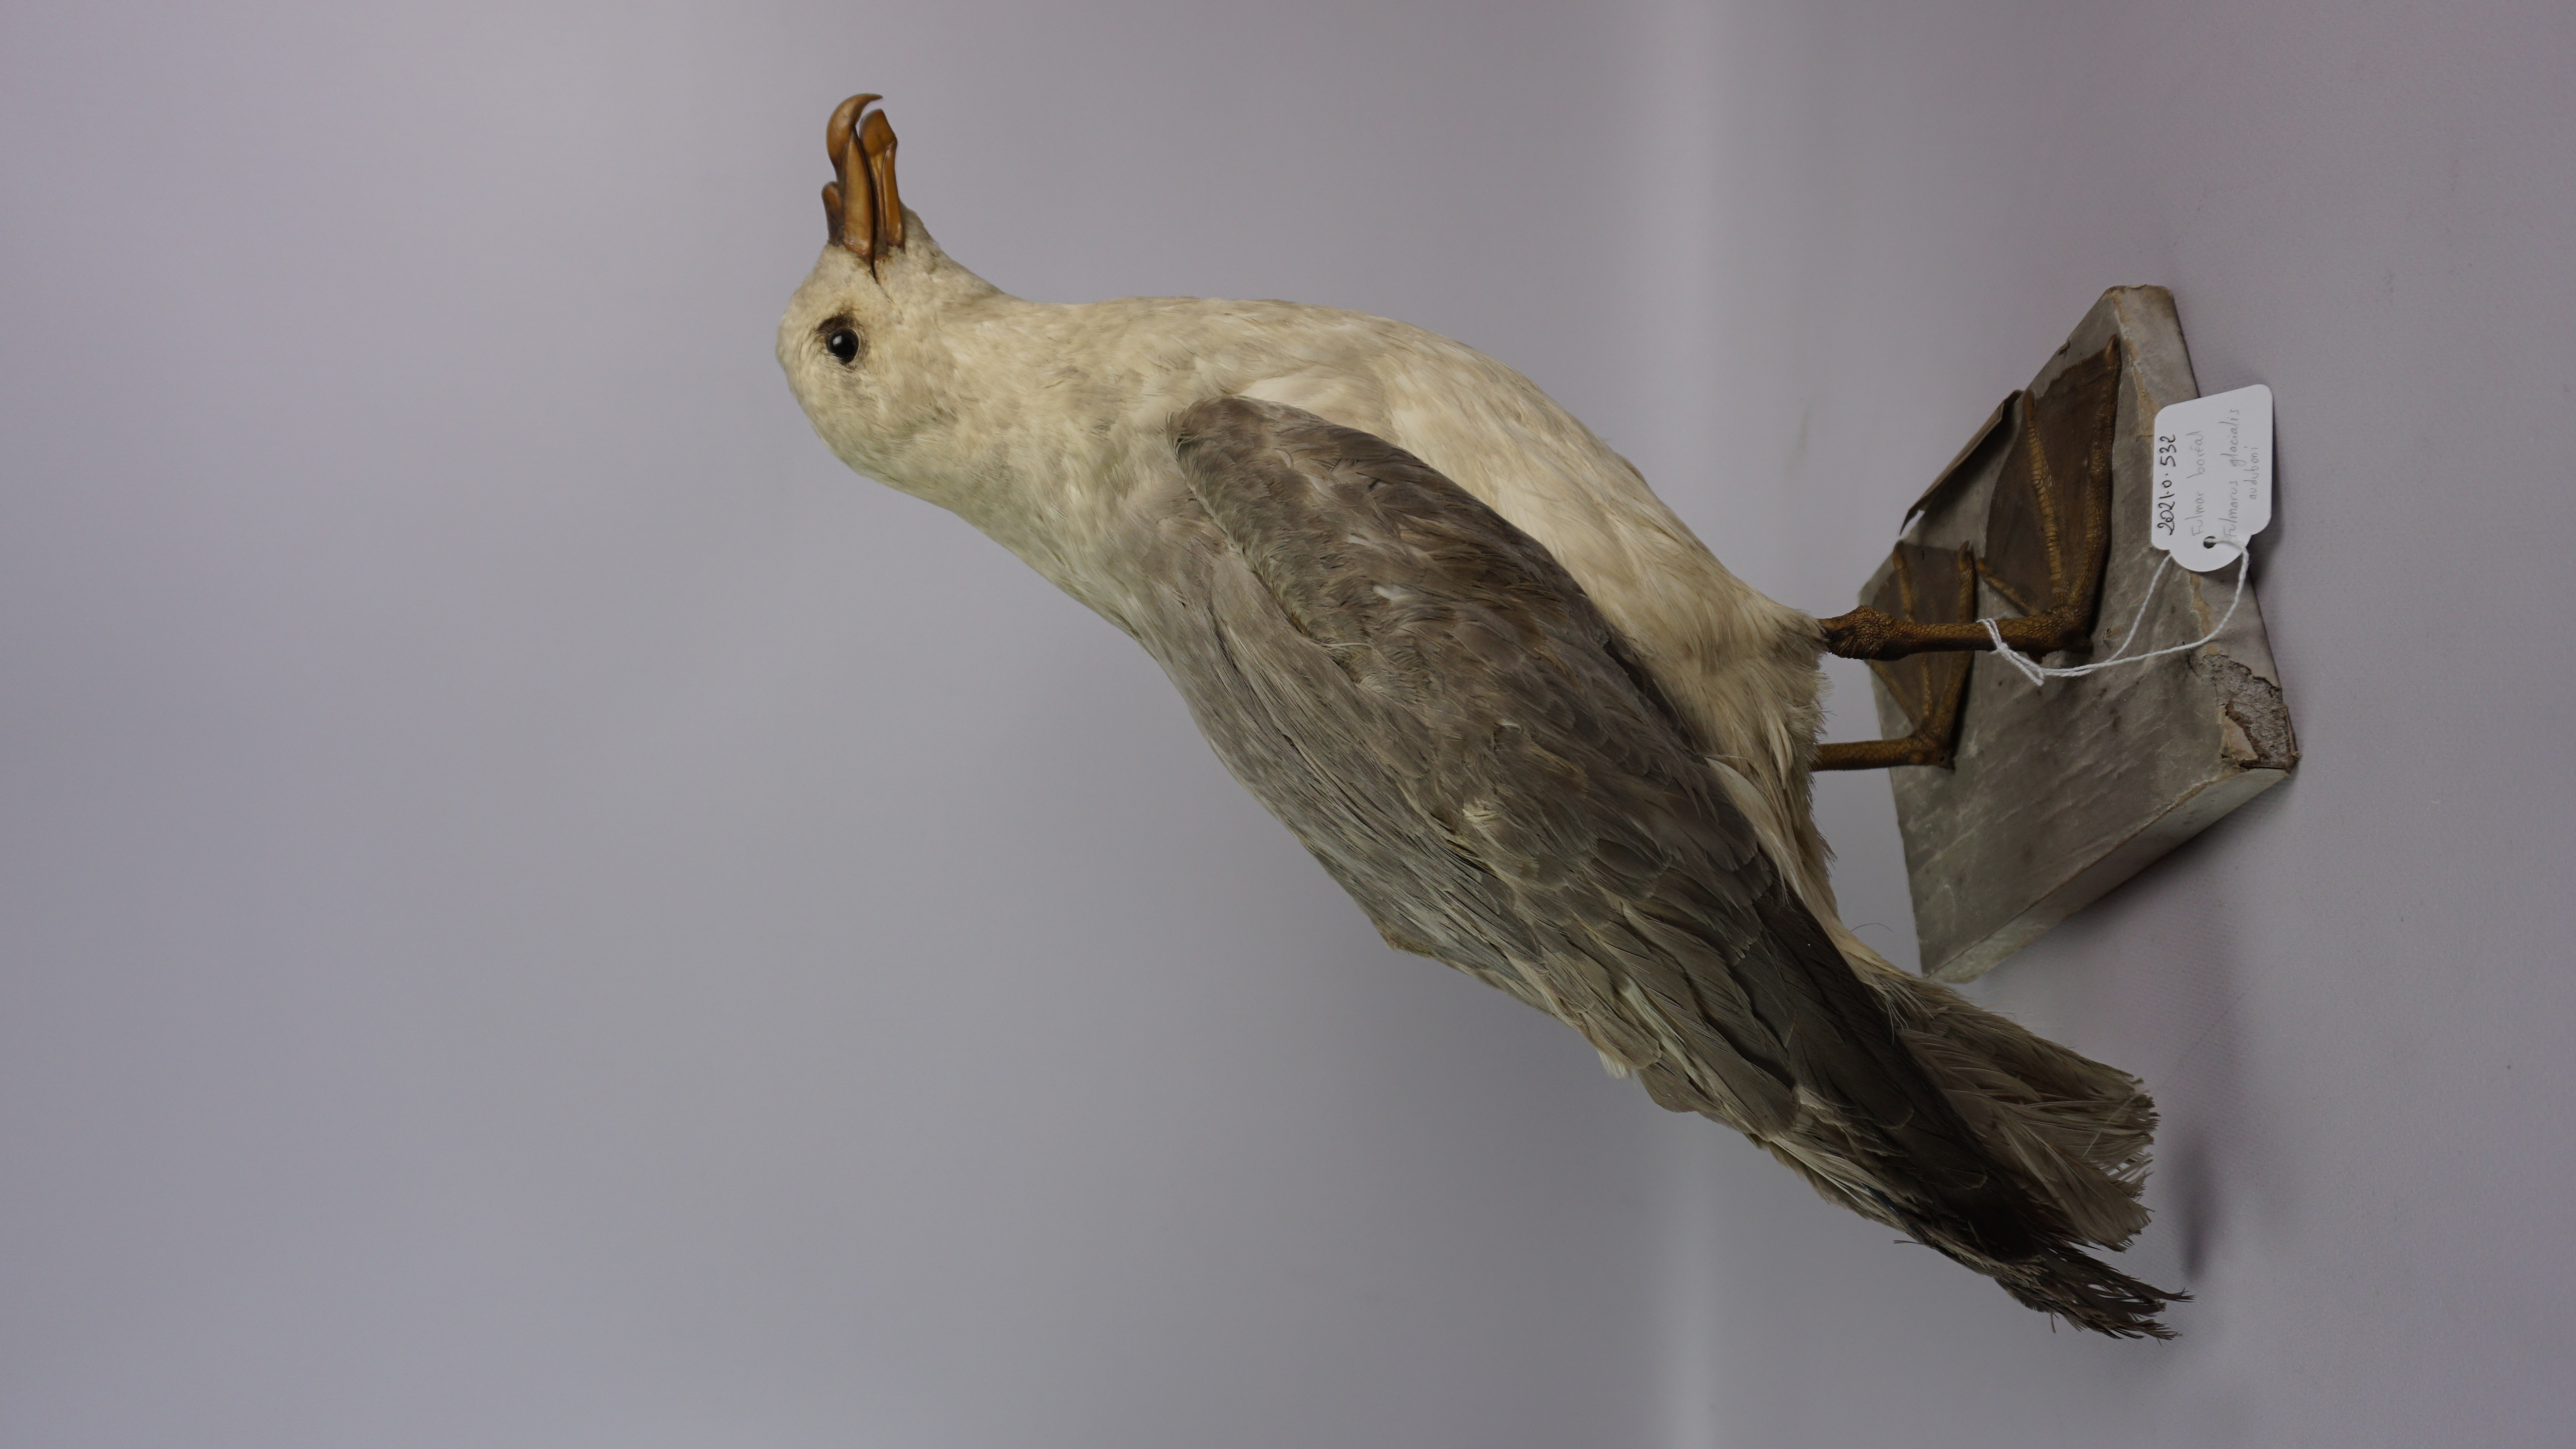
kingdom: Animalia
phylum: Chordata
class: Aves
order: Procellariiformes
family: Procellariidae
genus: Fulmarus
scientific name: Fulmarus glacialis
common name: Northern fulmar
